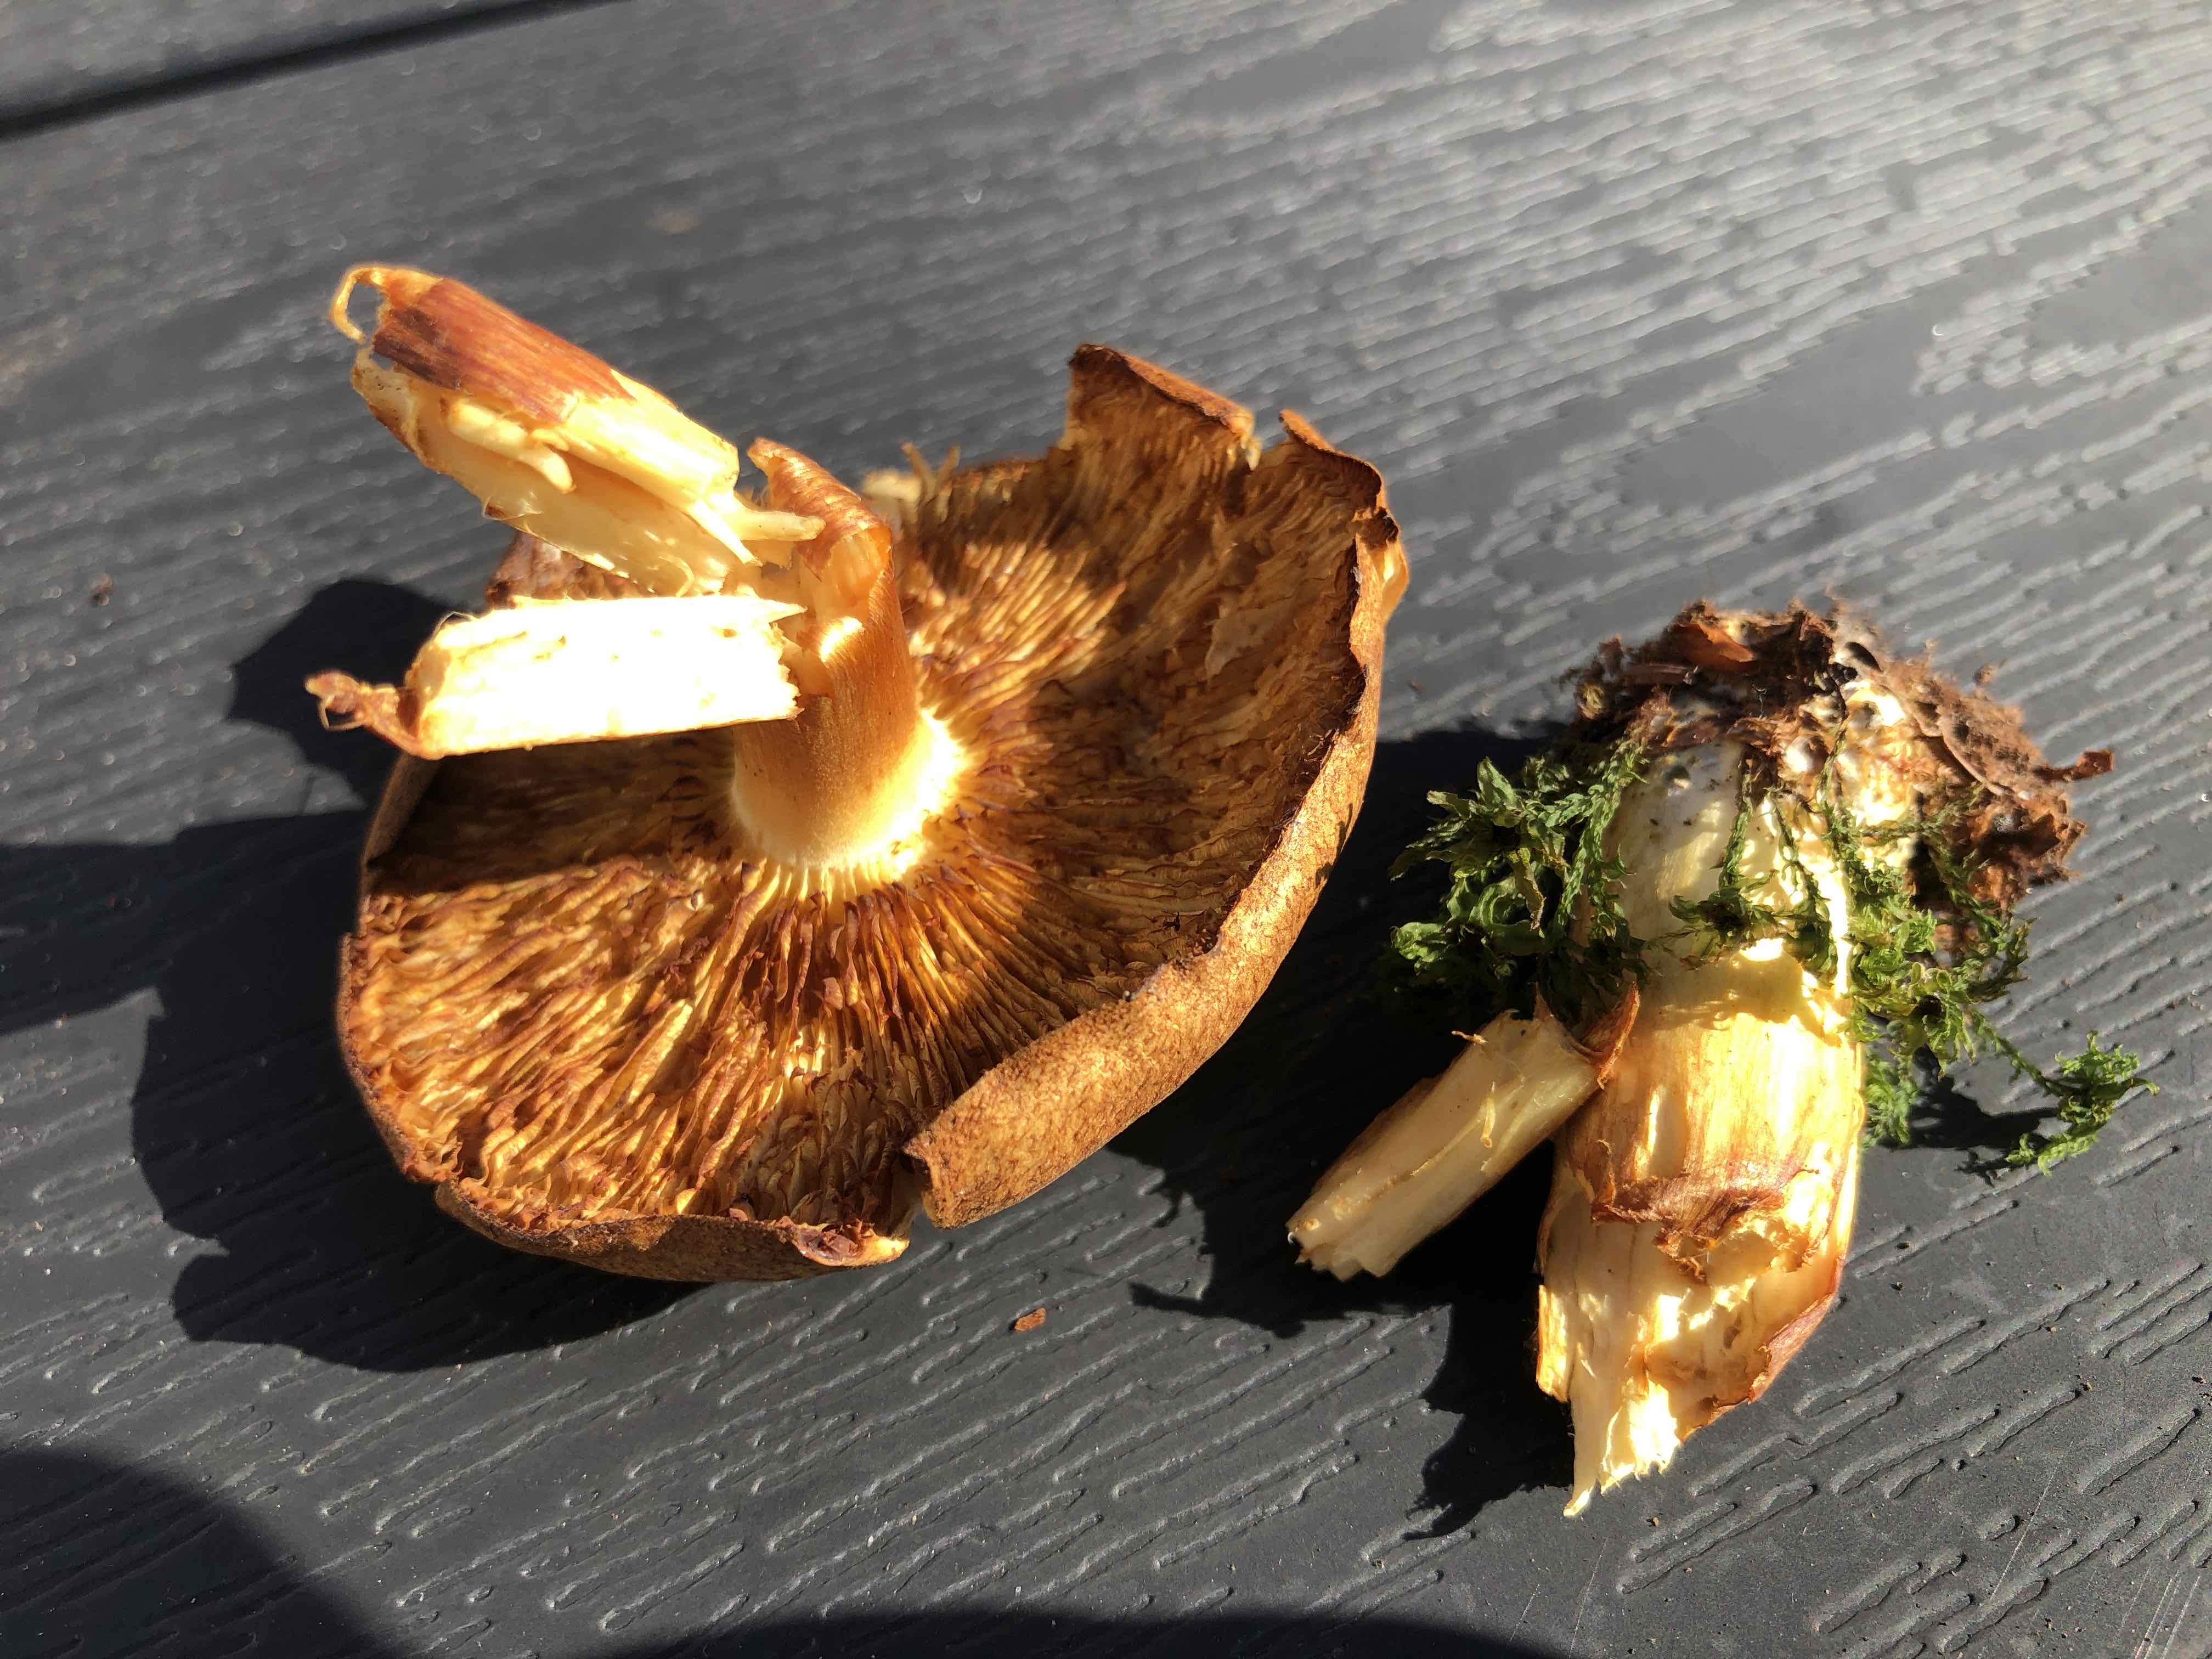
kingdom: Fungi
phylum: Basidiomycota
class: Agaricomycetes
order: Agaricales
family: Hymenogastraceae
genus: Gymnopilus
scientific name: Gymnopilus penetrans
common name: plettet flammehat
